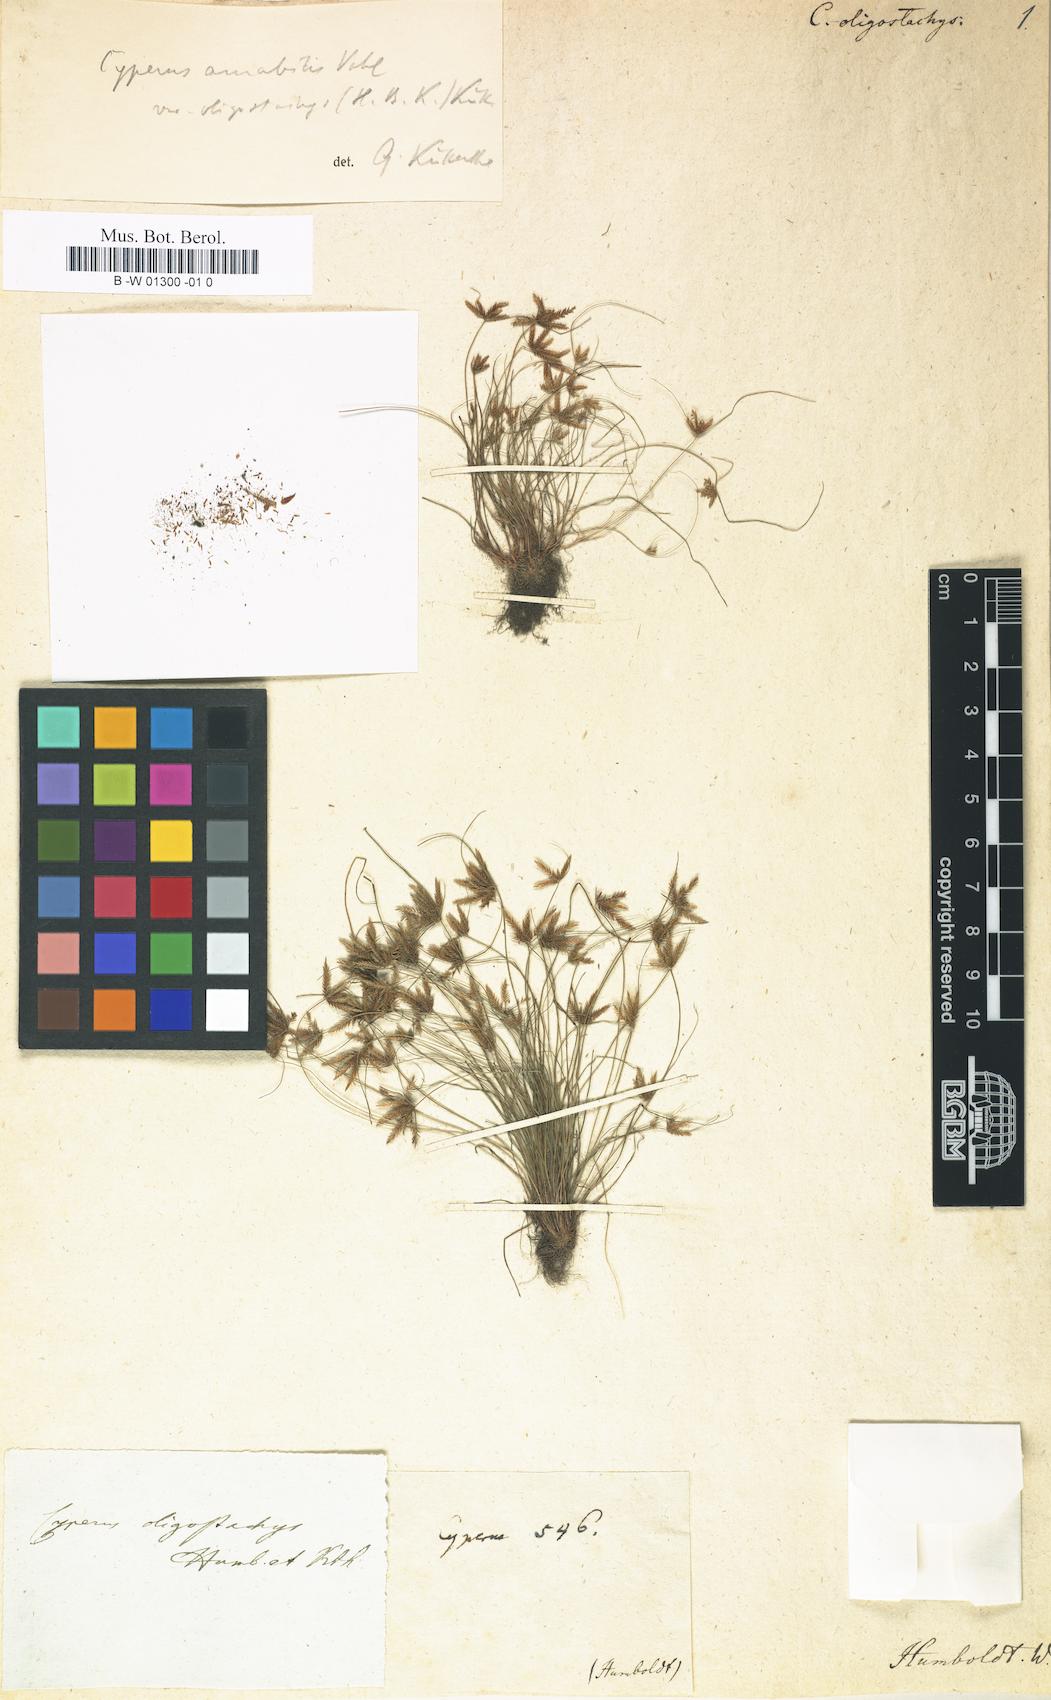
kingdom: Plantae
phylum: Tracheophyta
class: Liliopsida
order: Poales
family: Cyperaceae
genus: Cyperus
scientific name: Cyperus amabilis
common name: Foothill flat sedge
